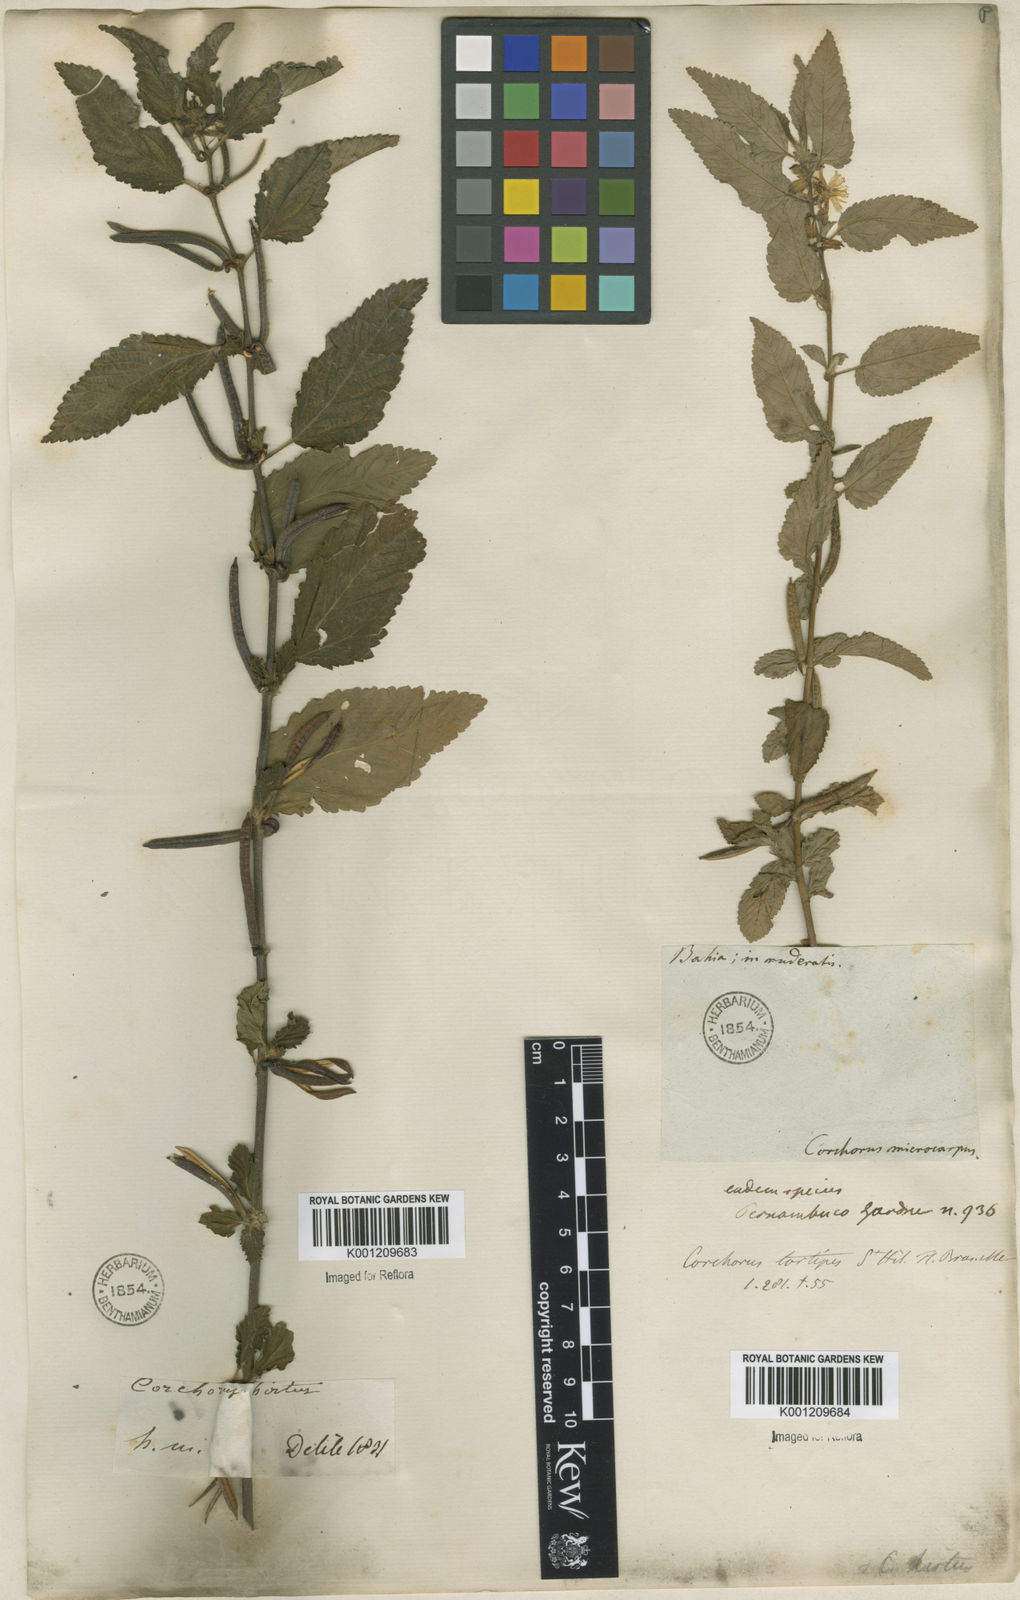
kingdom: Plantae
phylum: Tracheophyta
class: Magnoliopsida
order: Malvales
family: Malvaceae
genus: Corchorus
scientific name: Corchorus hirtus
